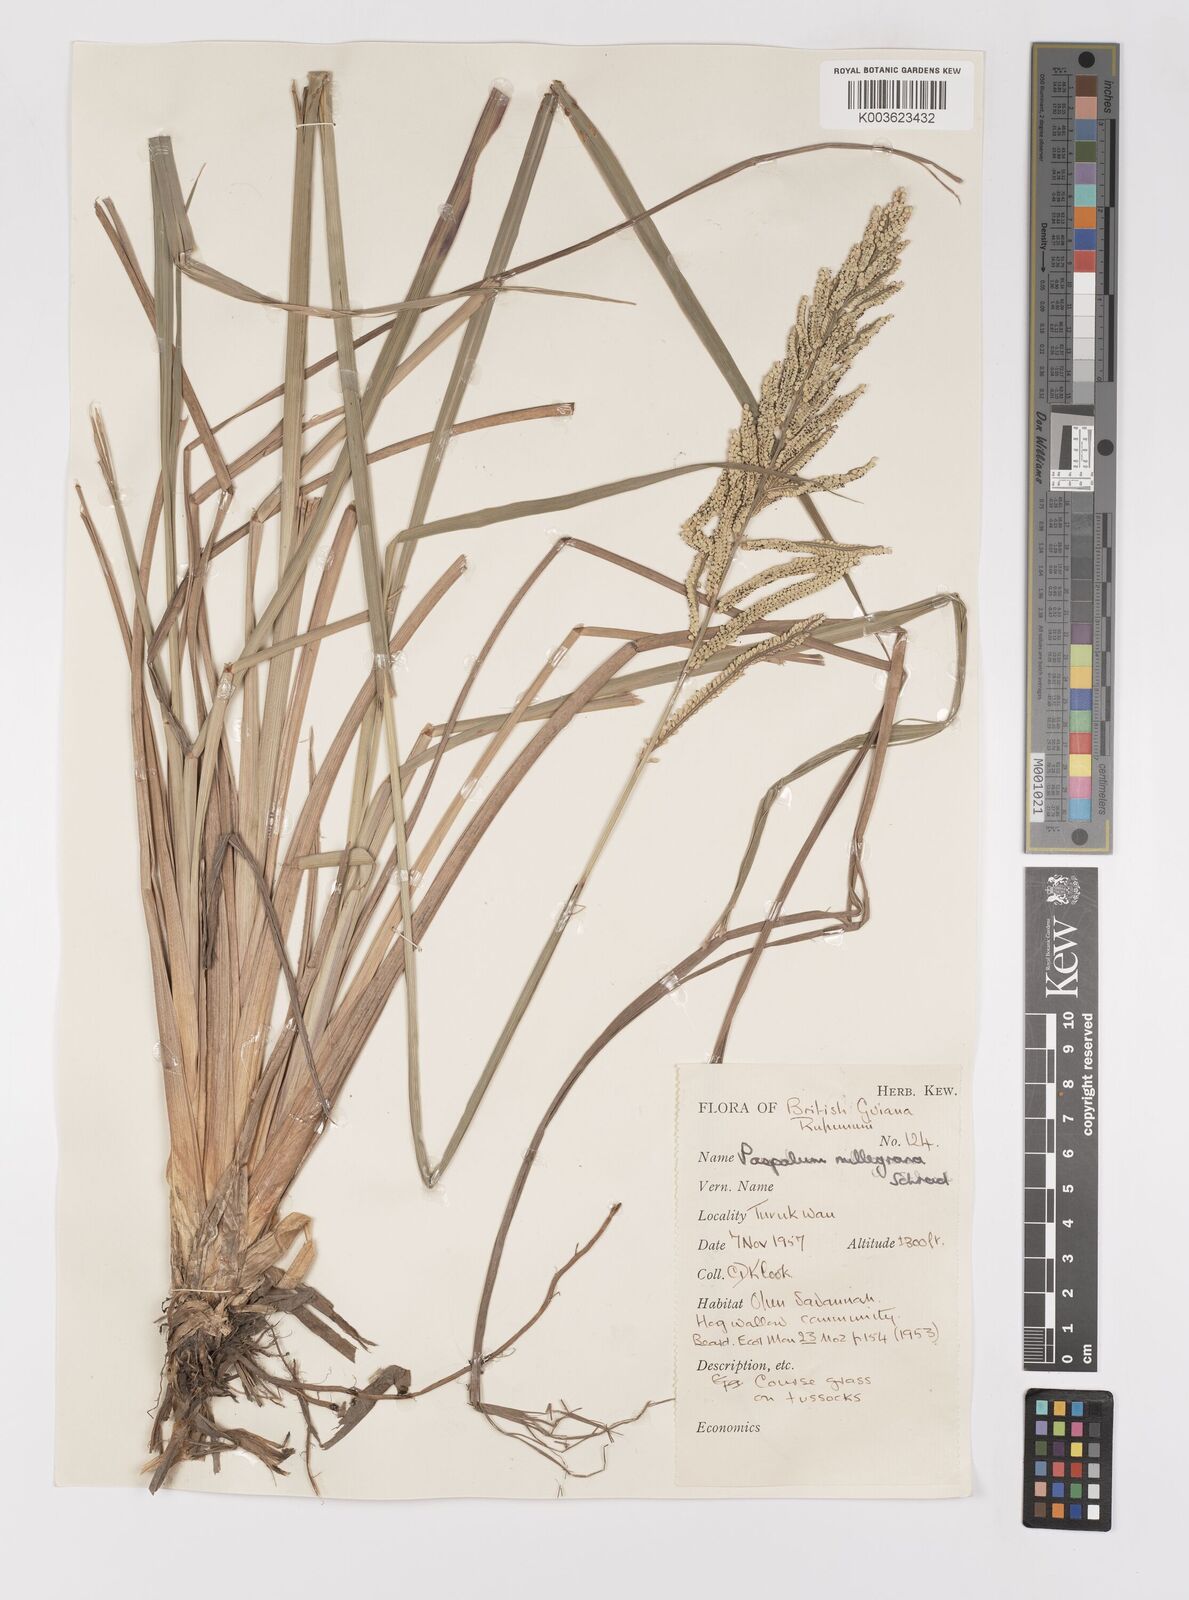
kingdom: Plantae
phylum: Tracheophyta
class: Liliopsida
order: Poales
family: Poaceae
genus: Paspalum
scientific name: Paspalum densum
